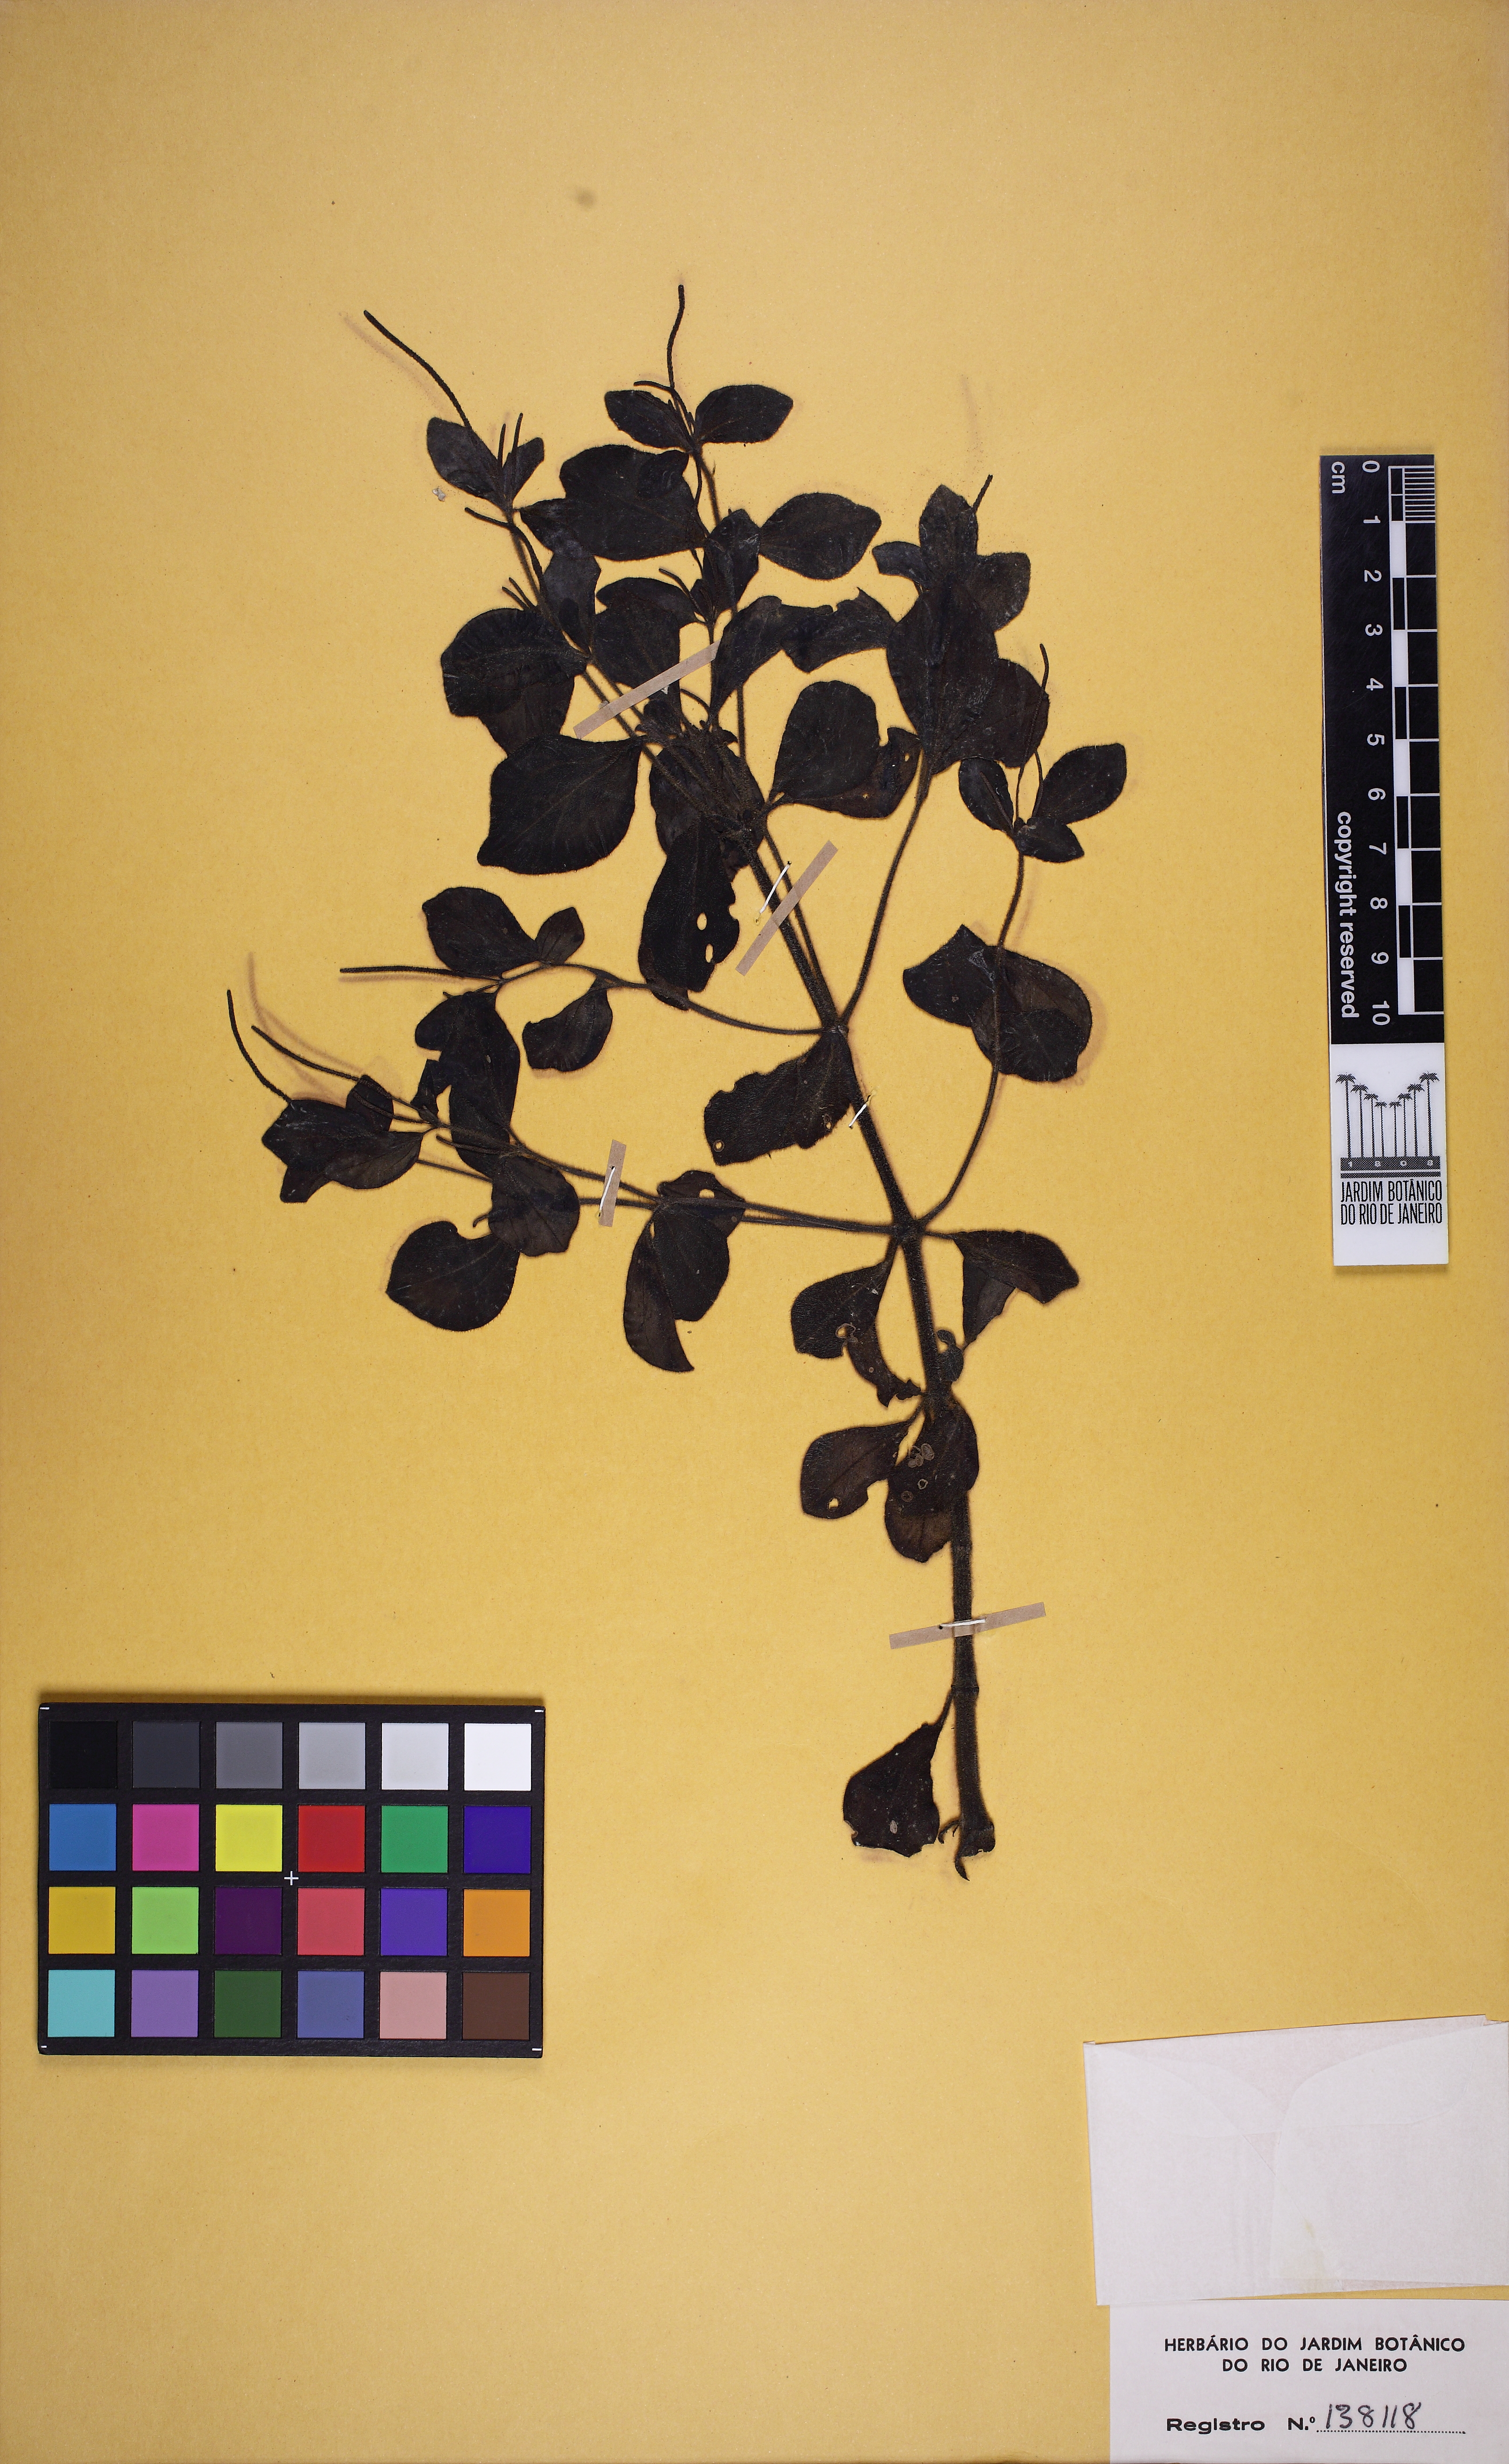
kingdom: Plantae
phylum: Tracheophyta
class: Magnoliopsida
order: Piperales
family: Piperaceae
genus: Peperomia
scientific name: Peperomia blanda
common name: Arid-land peperomia
